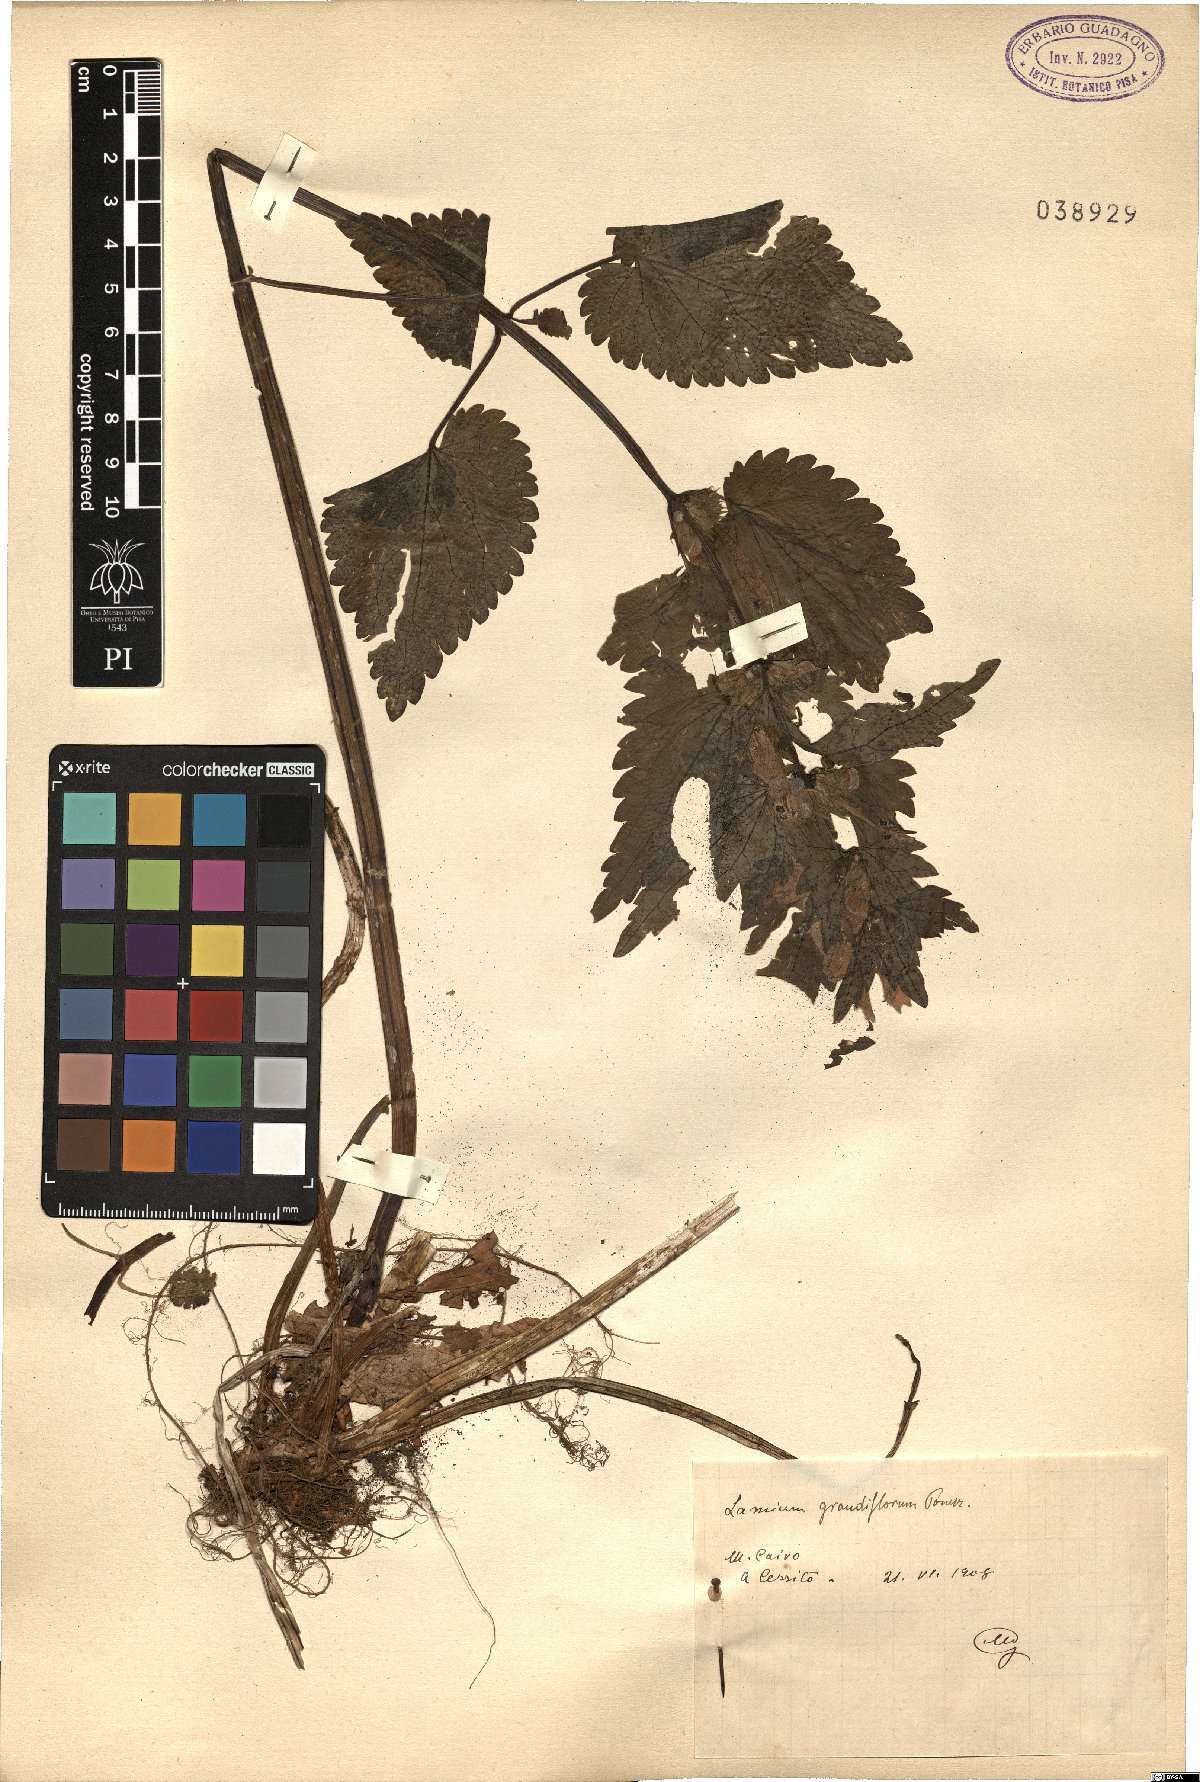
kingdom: Plantae
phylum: Tracheophyta
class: Magnoliopsida
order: Lamiales
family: Lamiaceae
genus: Lamium
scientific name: Lamium garganicum
